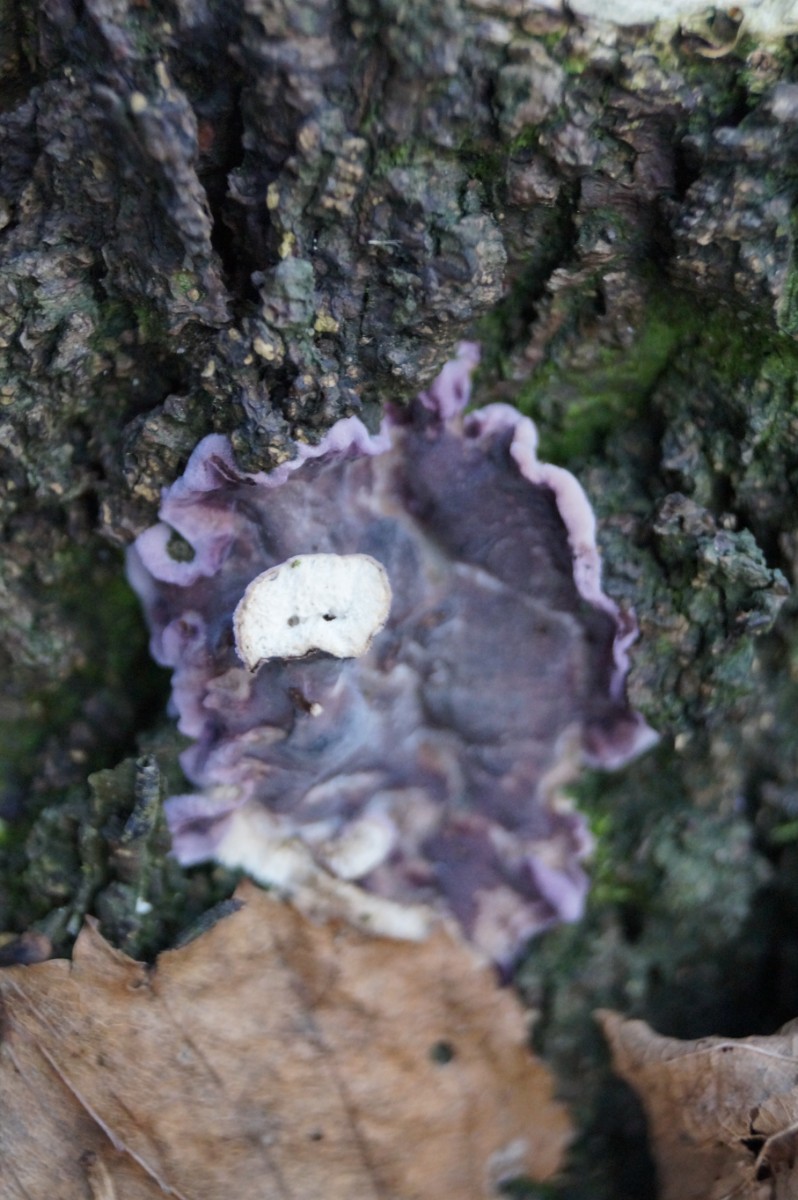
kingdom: Fungi
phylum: Basidiomycota
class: Agaricomycetes
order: Agaricales
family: Cyphellaceae
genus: Chondrostereum
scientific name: Chondrostereum purpureum
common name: purpurlædersvamp
